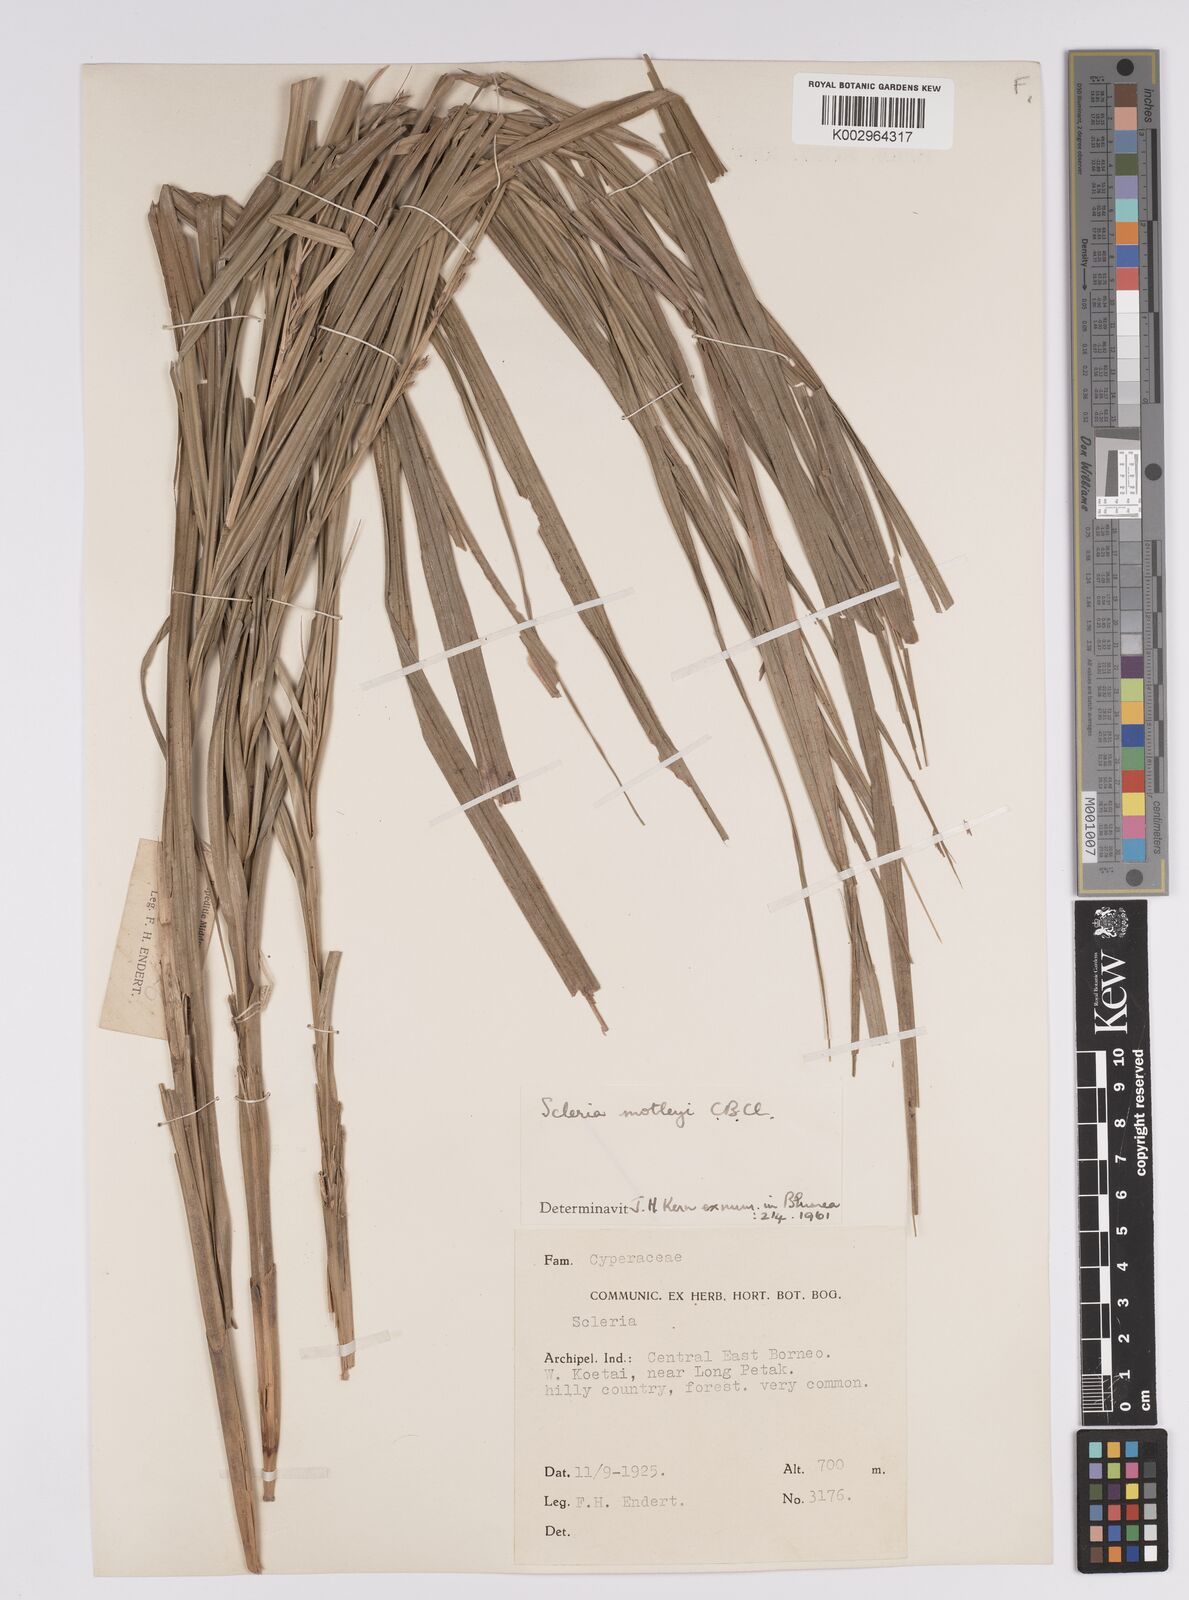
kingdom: Plantae
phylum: Tracheophyta
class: Liliopsida
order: Poales
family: Cyperaceae
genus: Scleria
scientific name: Scleria motleyi
